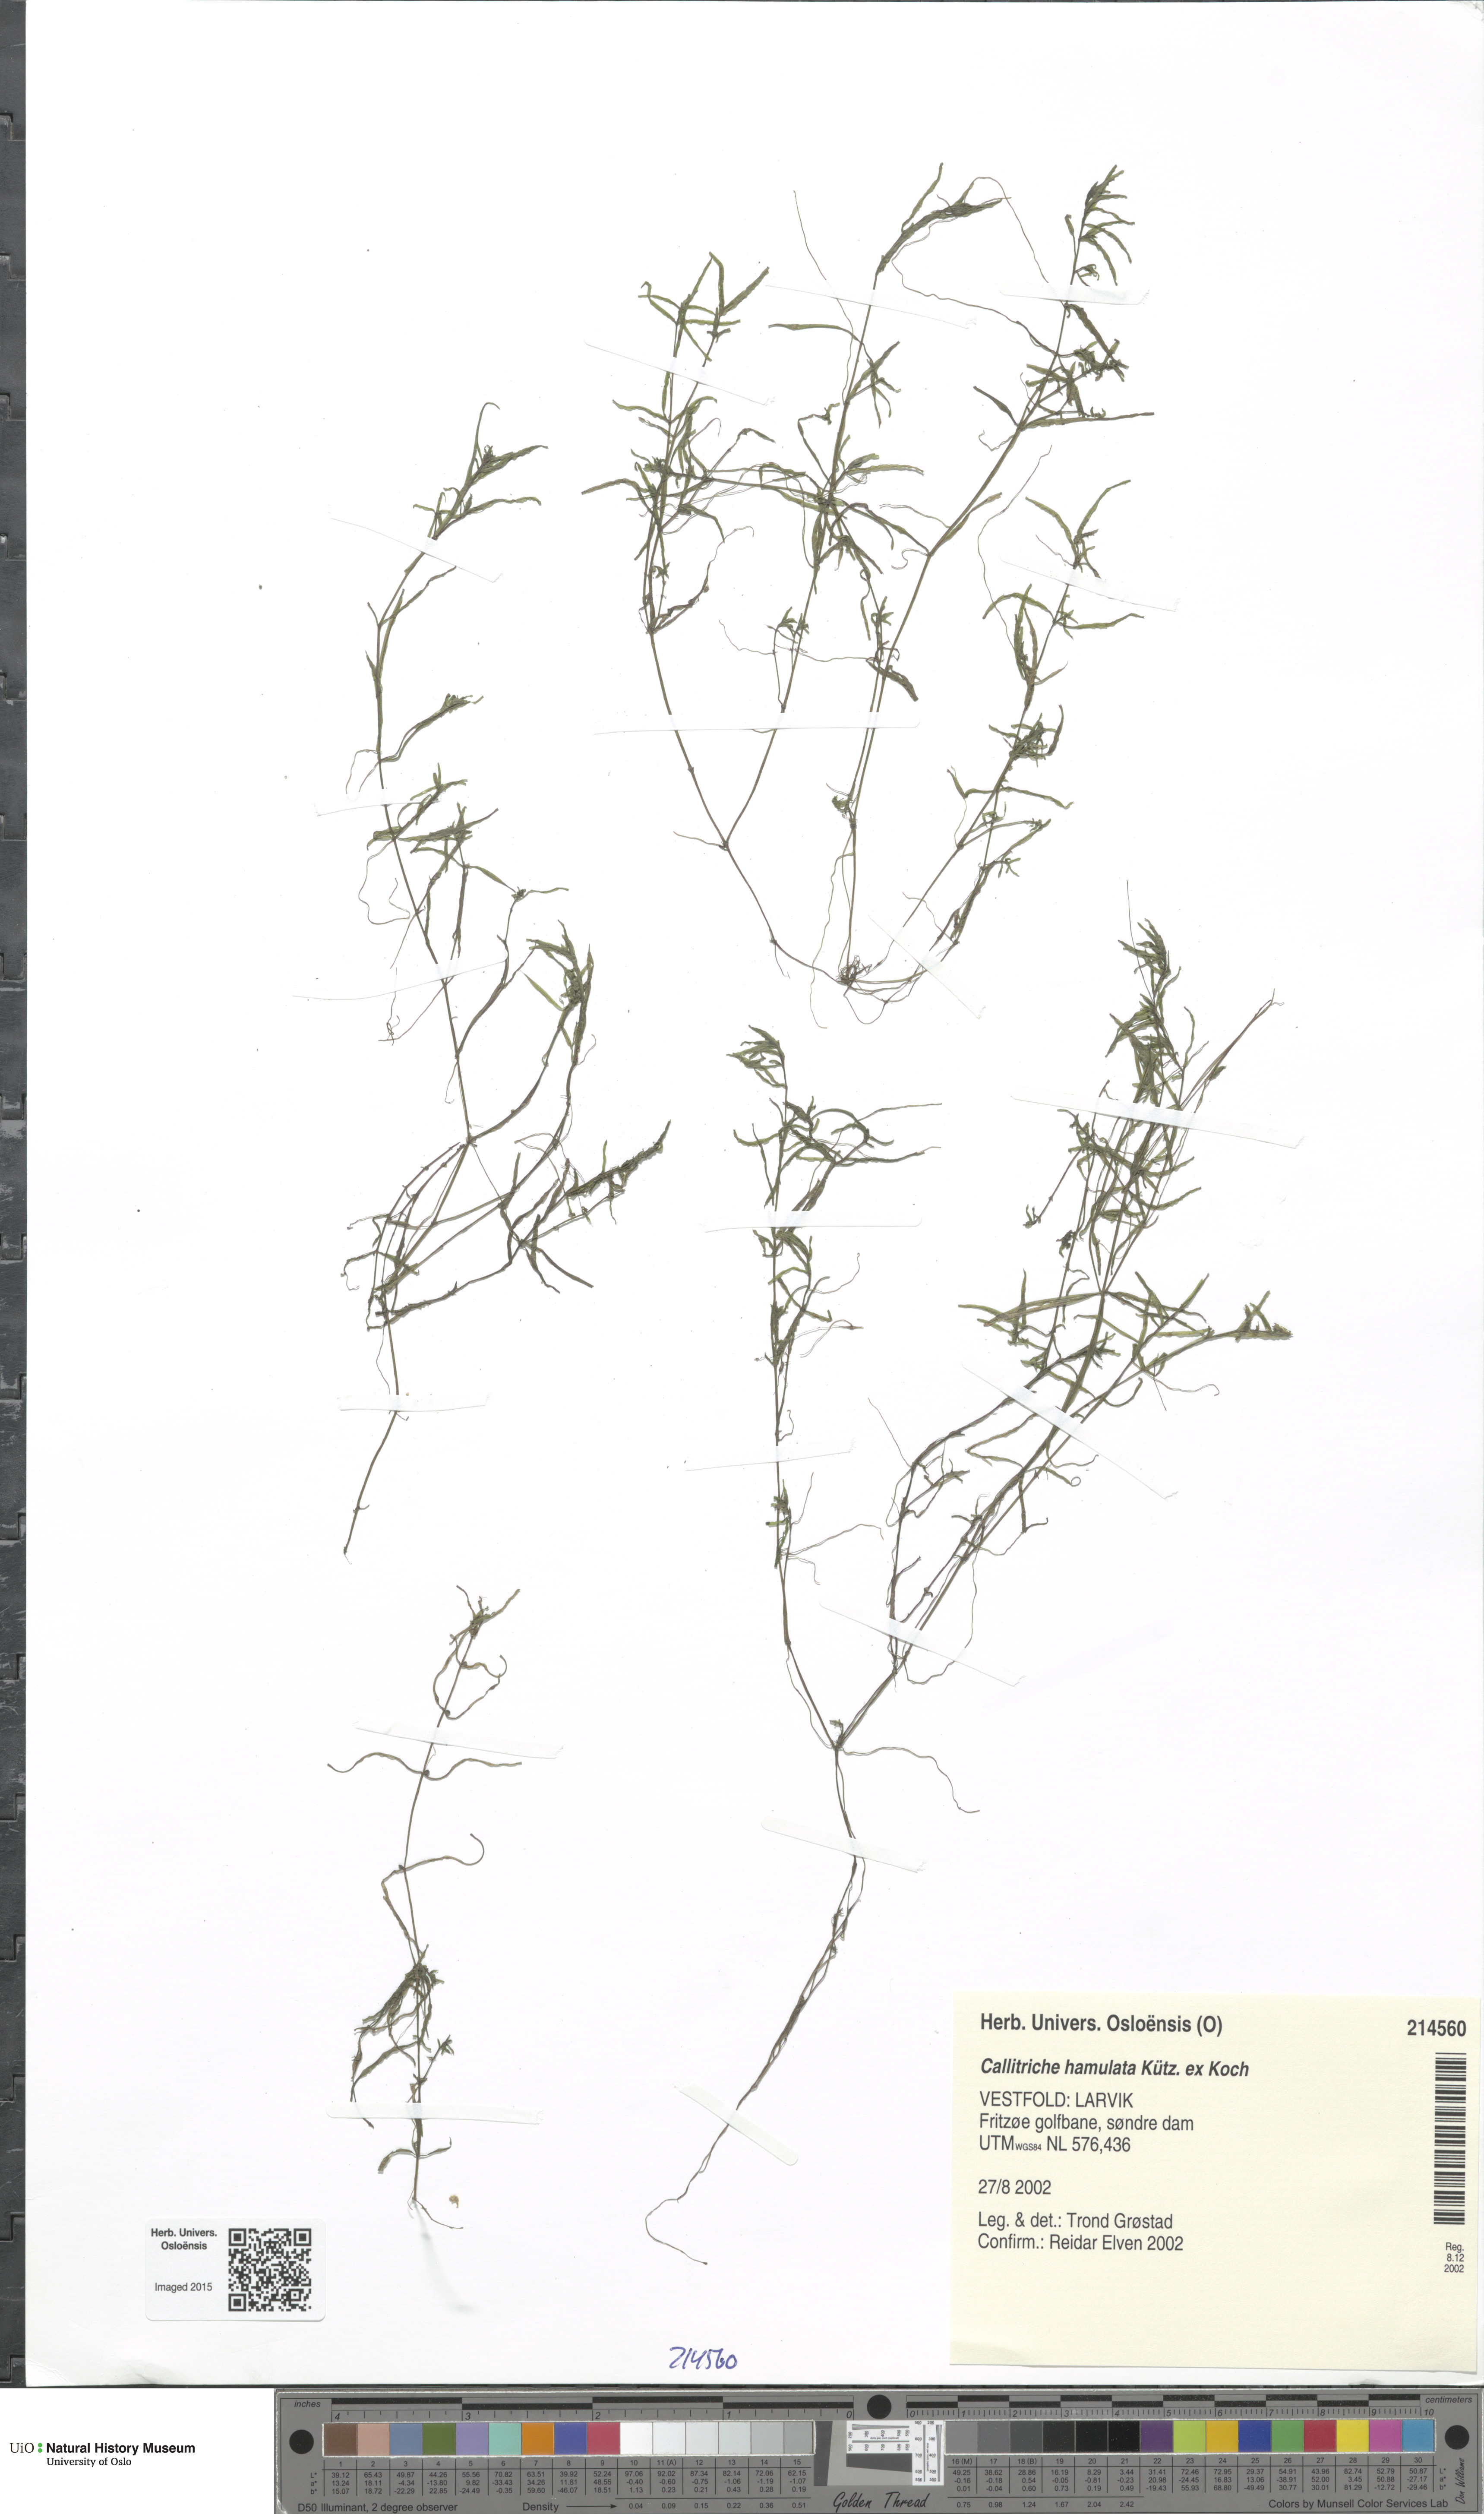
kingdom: Plantae
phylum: Tracheophyta
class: Magnoliopsida
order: Lamiales
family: Plantaginaceae
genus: Callitriche
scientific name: Callitriche hamulata
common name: Intermediate water-starwort
